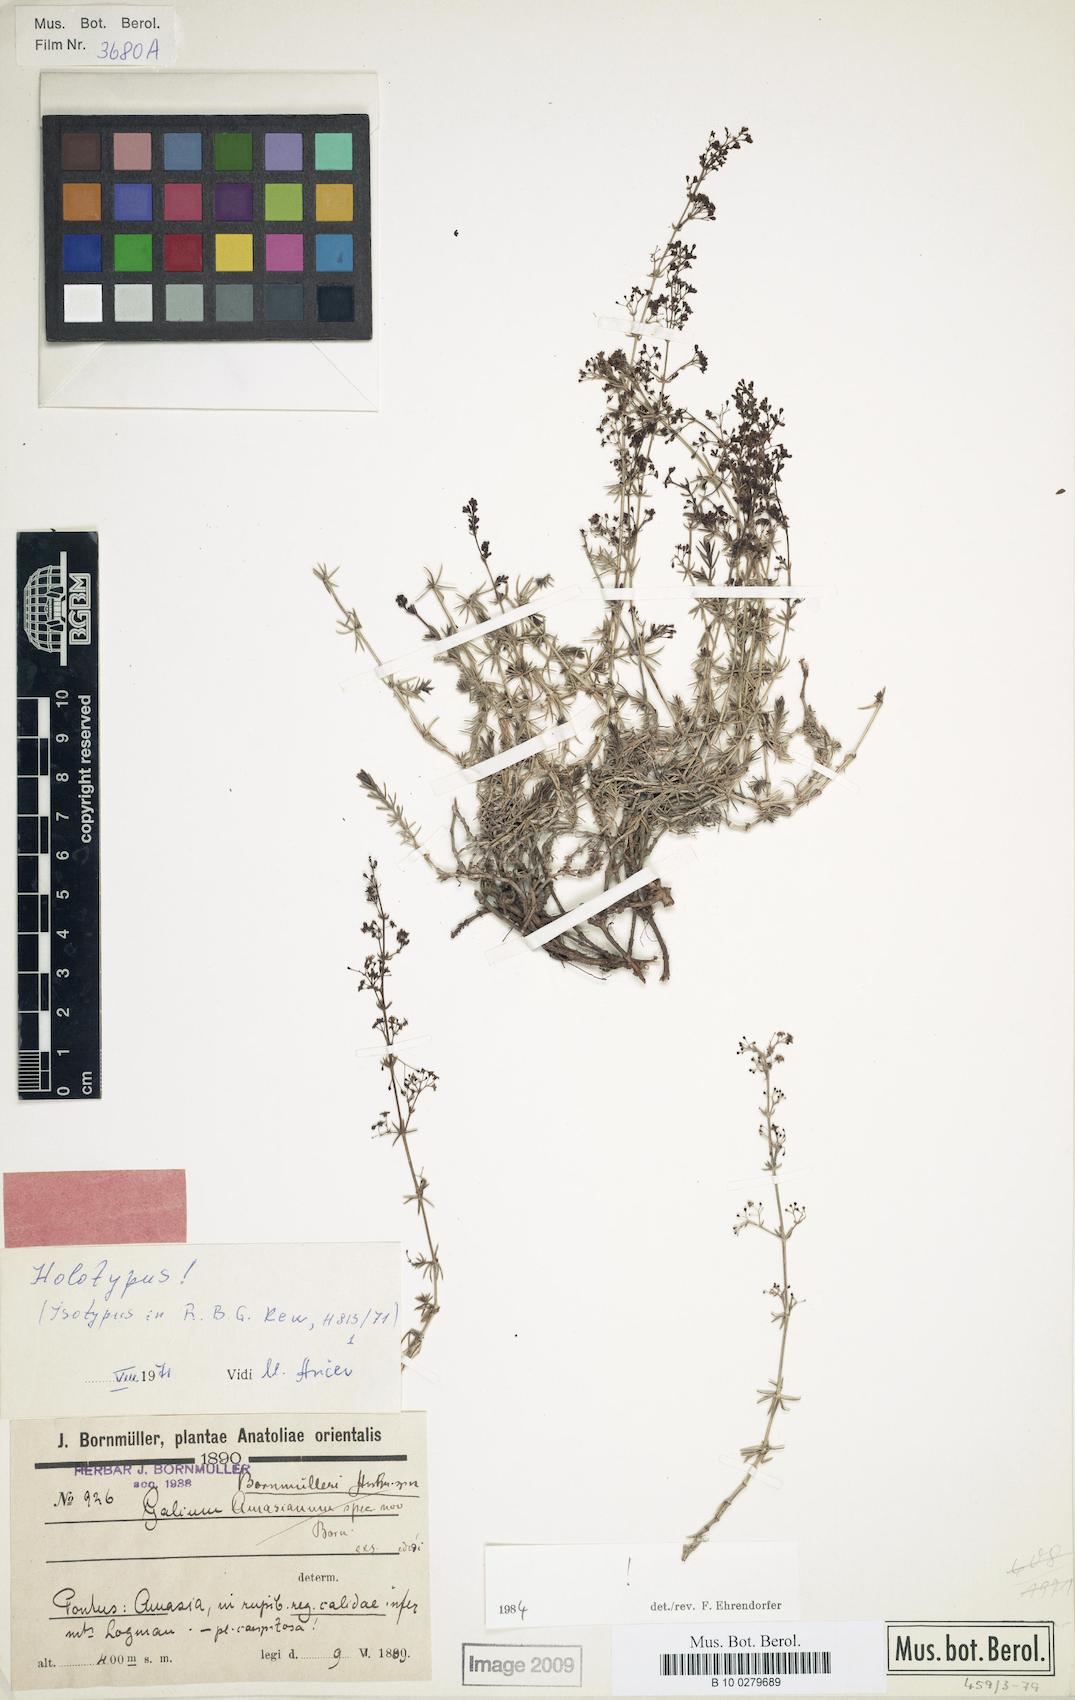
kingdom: Plantae
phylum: Tracheophyta
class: Magnoliopsida
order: Gentianales
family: Rubiaceae
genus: Galium
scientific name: Galium bornmuelleri
